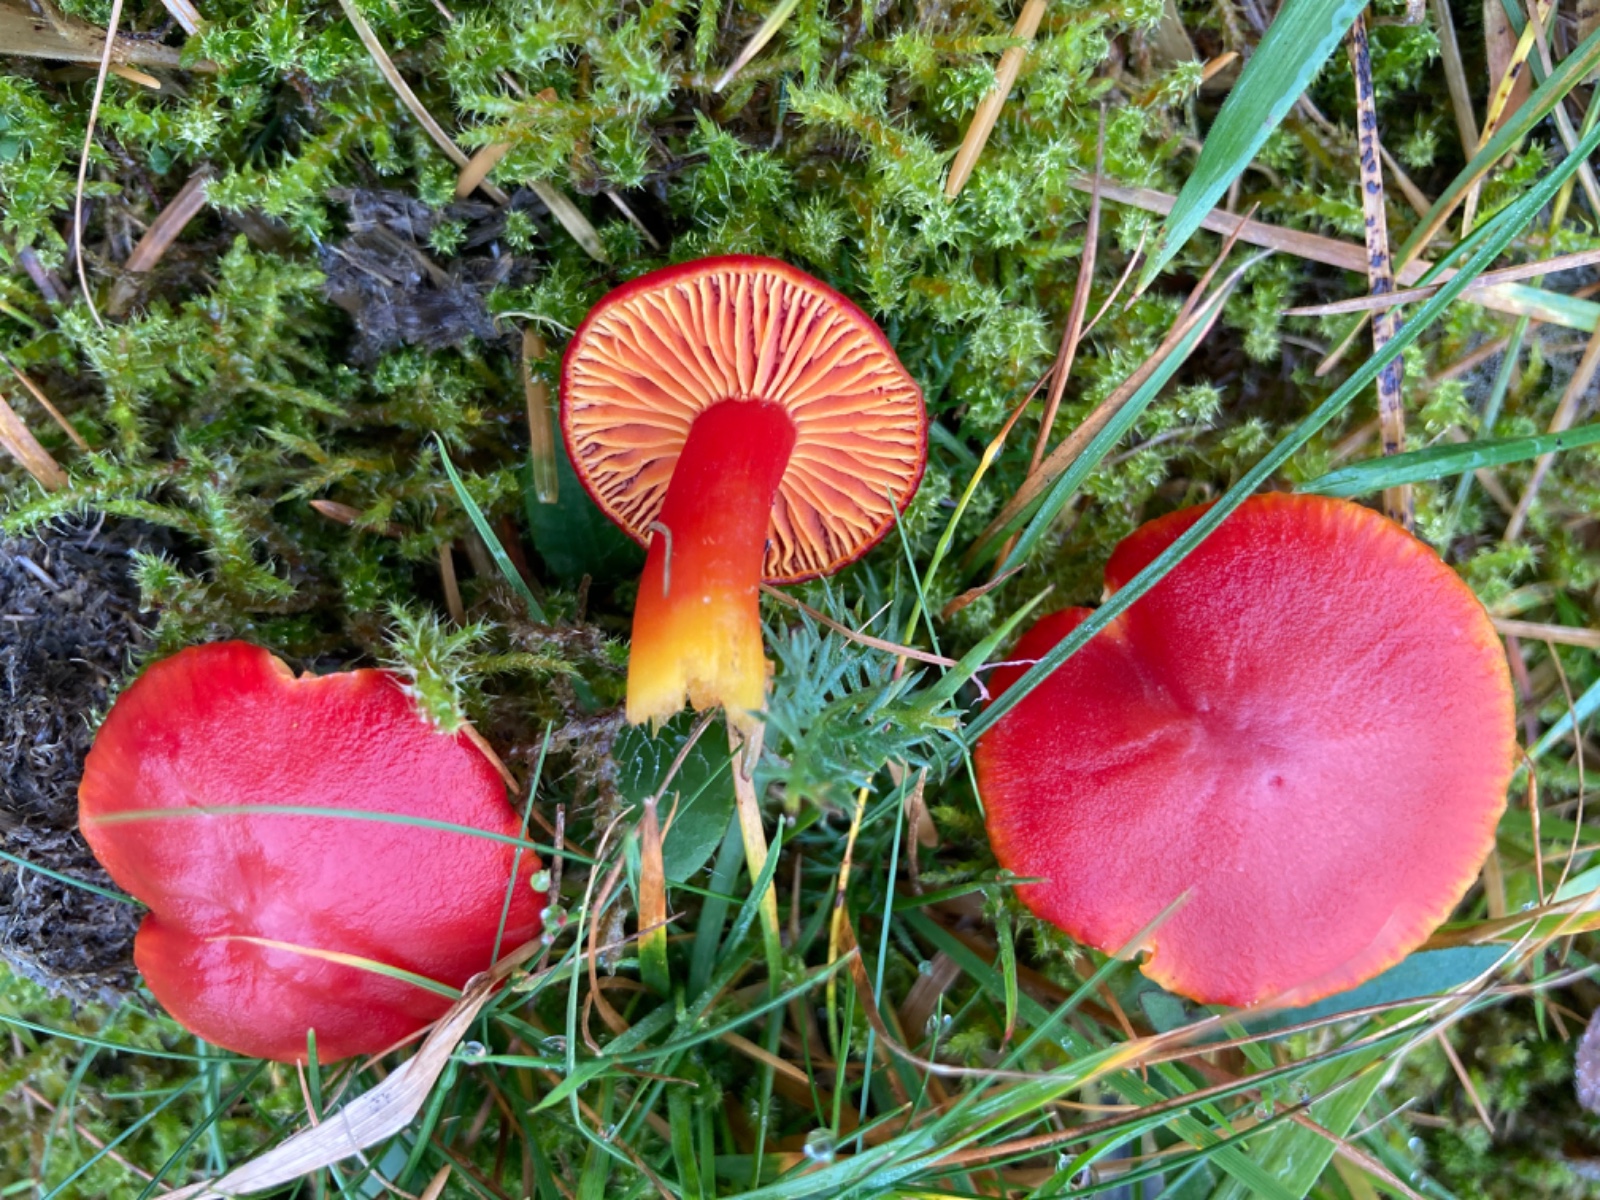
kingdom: Fungi
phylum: Basidiomycota
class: Agaricomycetes
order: Agaricales
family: Hygrophoraceae
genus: Hygrocybe
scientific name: Hygrocybe coccinea
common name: cinnober-vokshat
